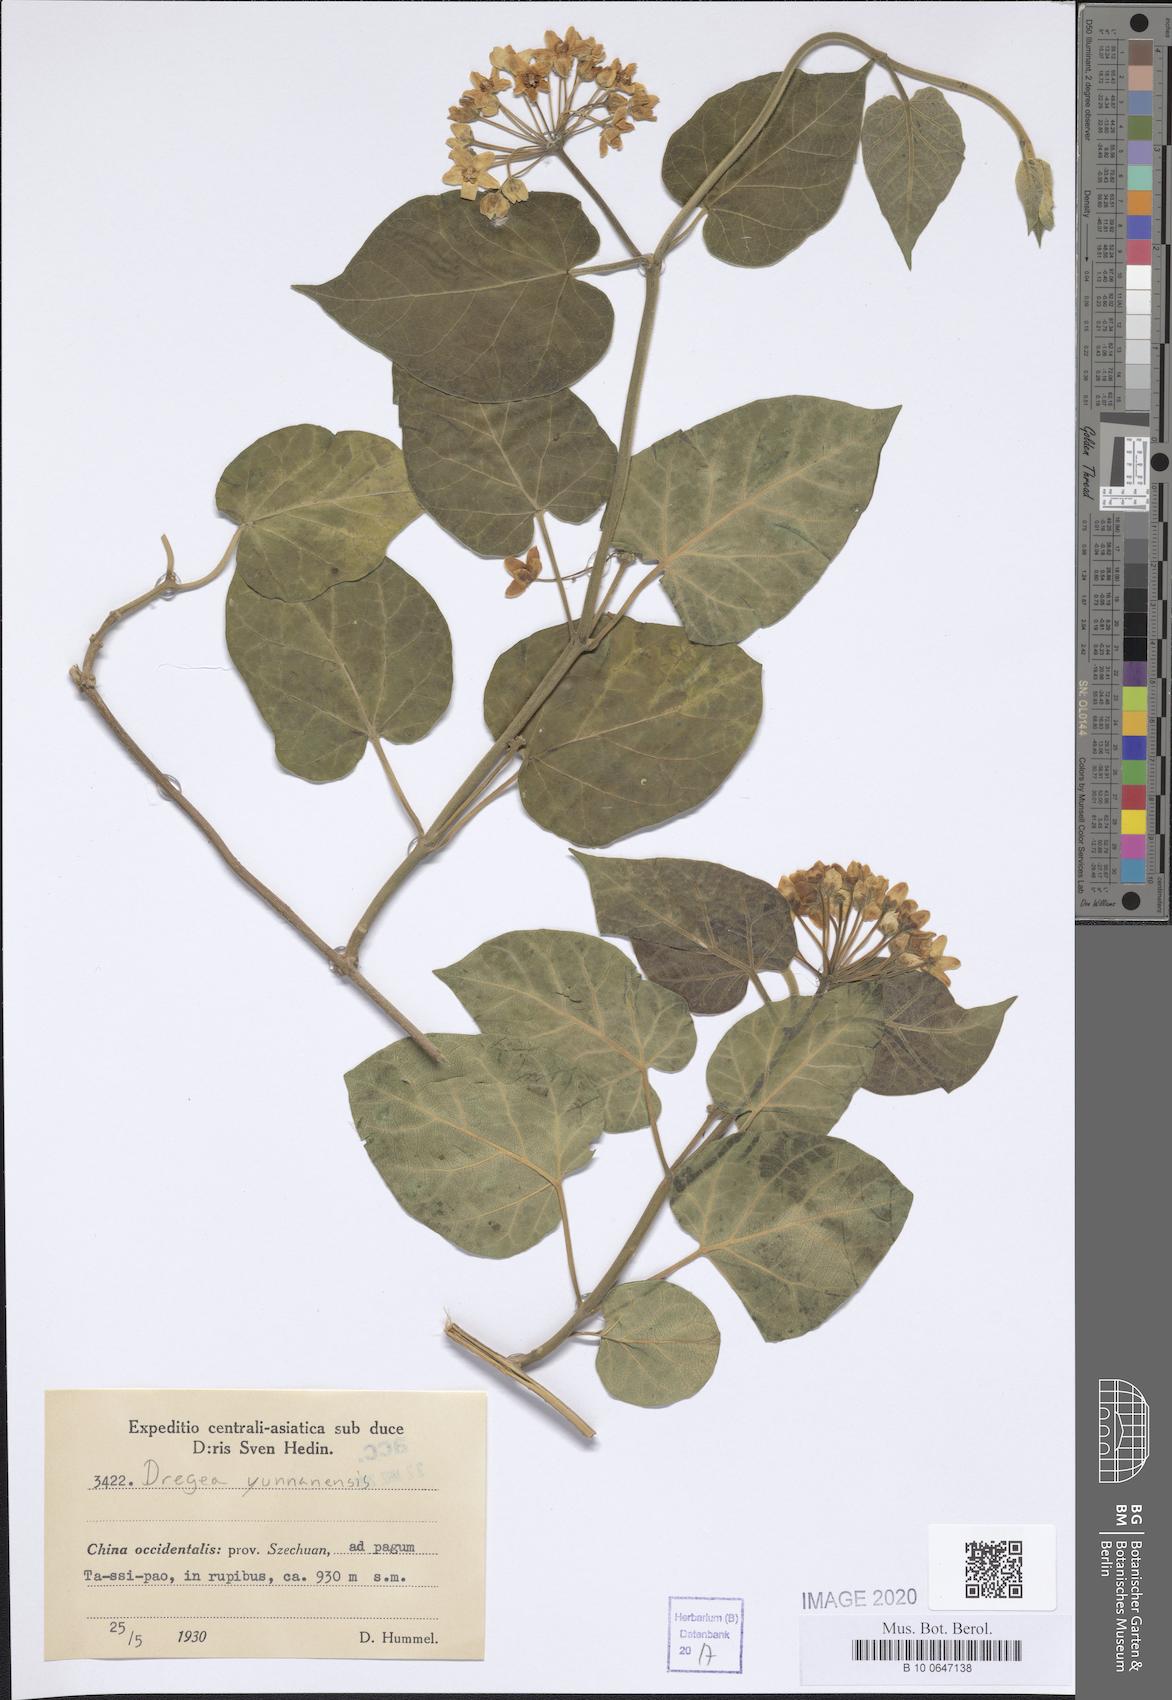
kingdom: Plantae
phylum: Tracheophyta
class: Magnoliopsida
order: Gentianales
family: Apocynaceae
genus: Sinomarsdenia
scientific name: Sinomarsdenia yunnanensis
